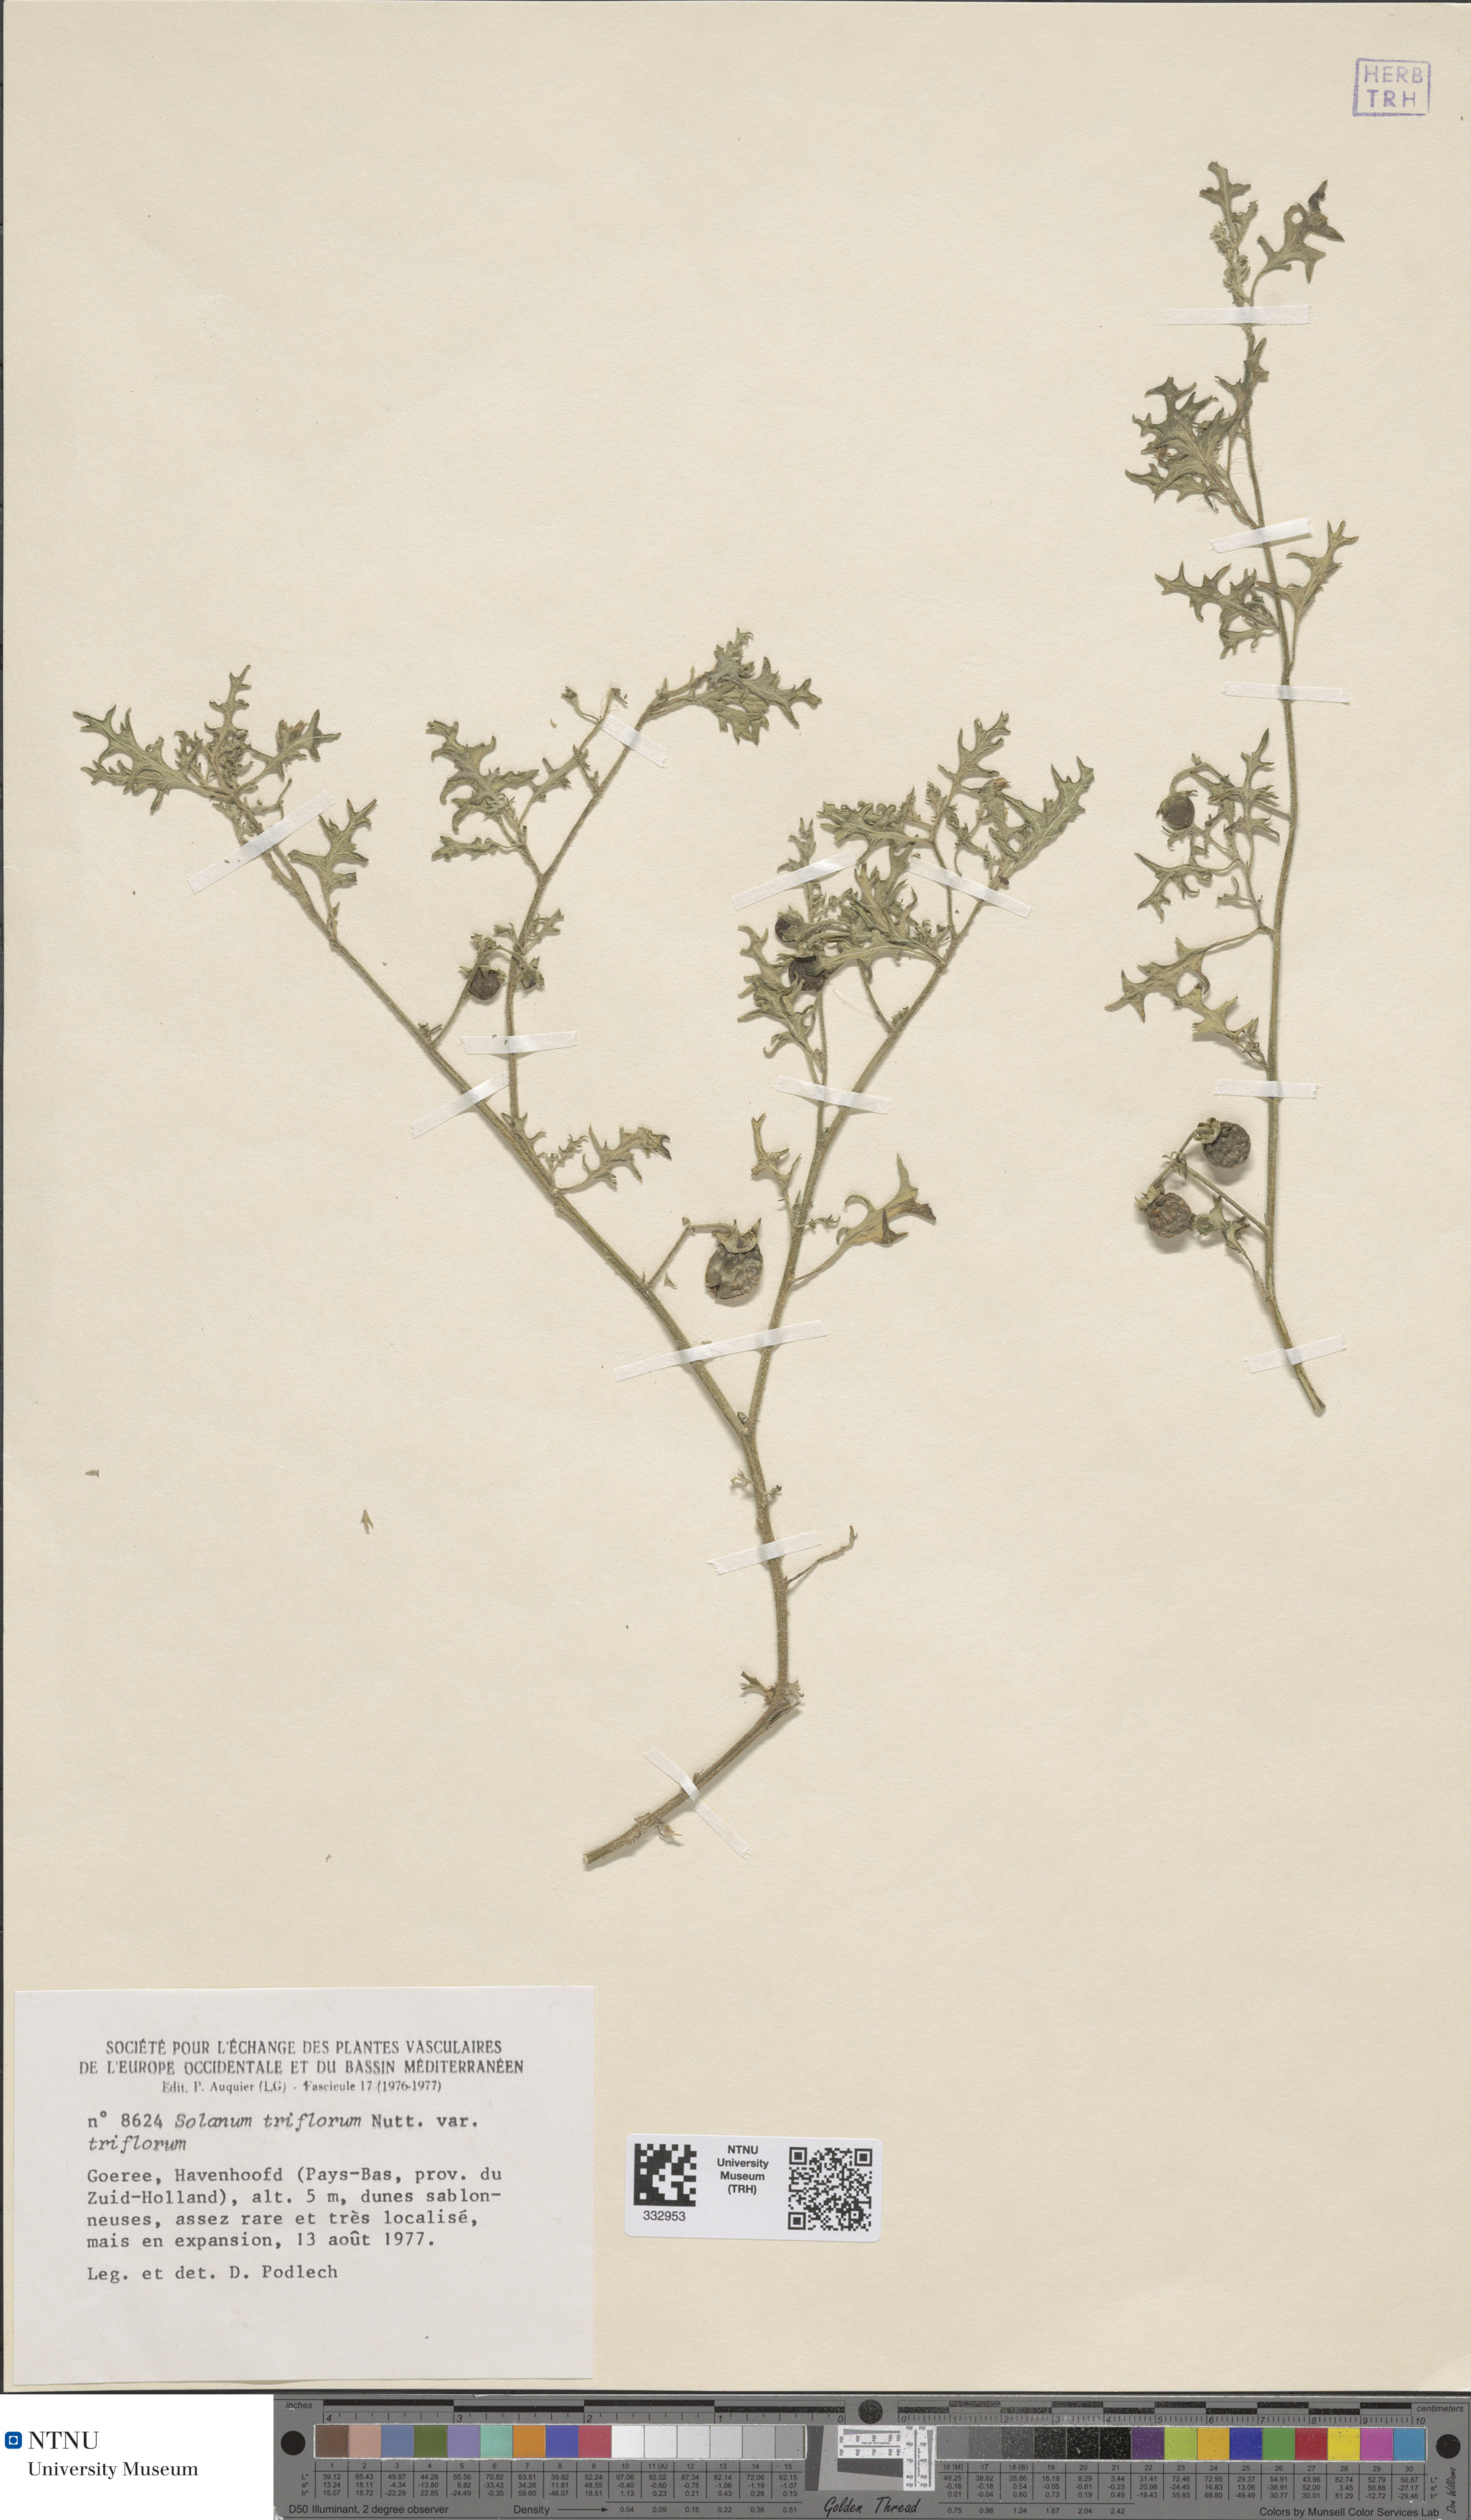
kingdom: Plantae
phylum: Tracheophyta
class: Magnoliopsida
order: Solanales
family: Solanaceae
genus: Solanum
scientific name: Solanum triflorum
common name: Small nightshade
